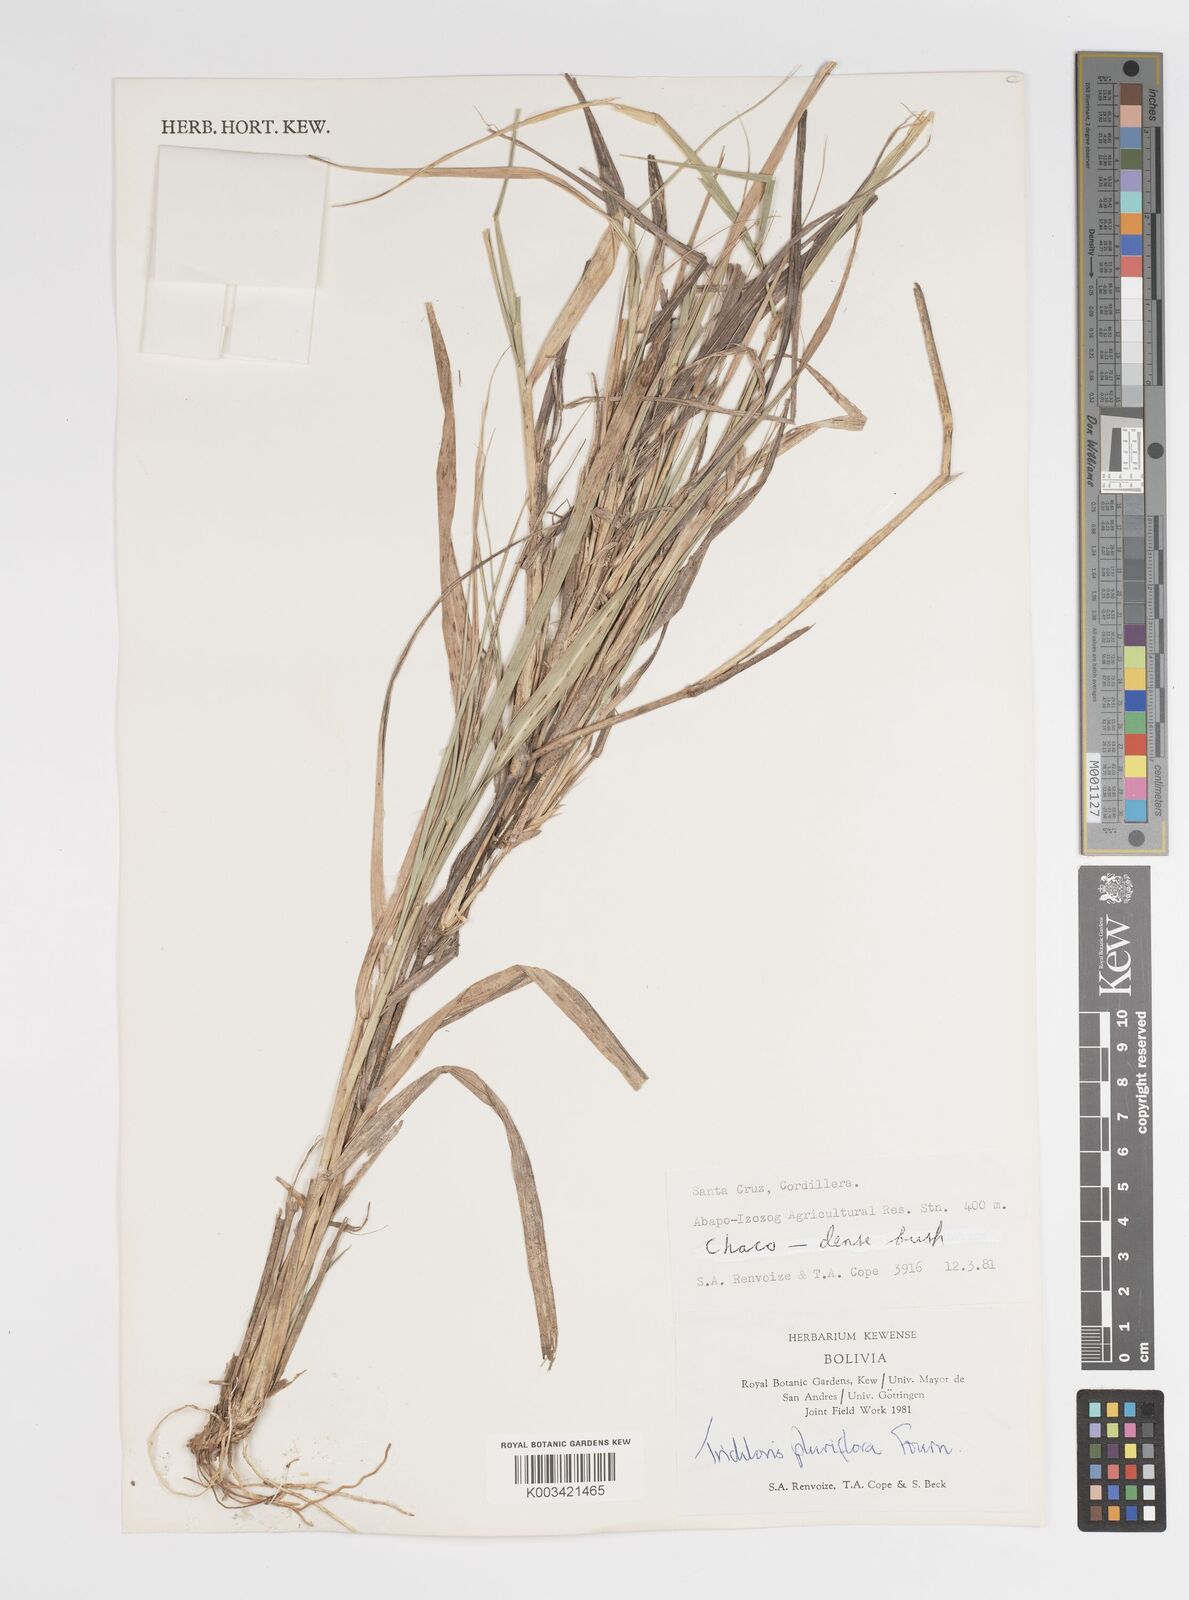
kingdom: Plantae
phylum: Tracheophyta
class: Liliopsida
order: Poales
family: Poaceae
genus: Leptochloa
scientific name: Leptochloa pluriflora
